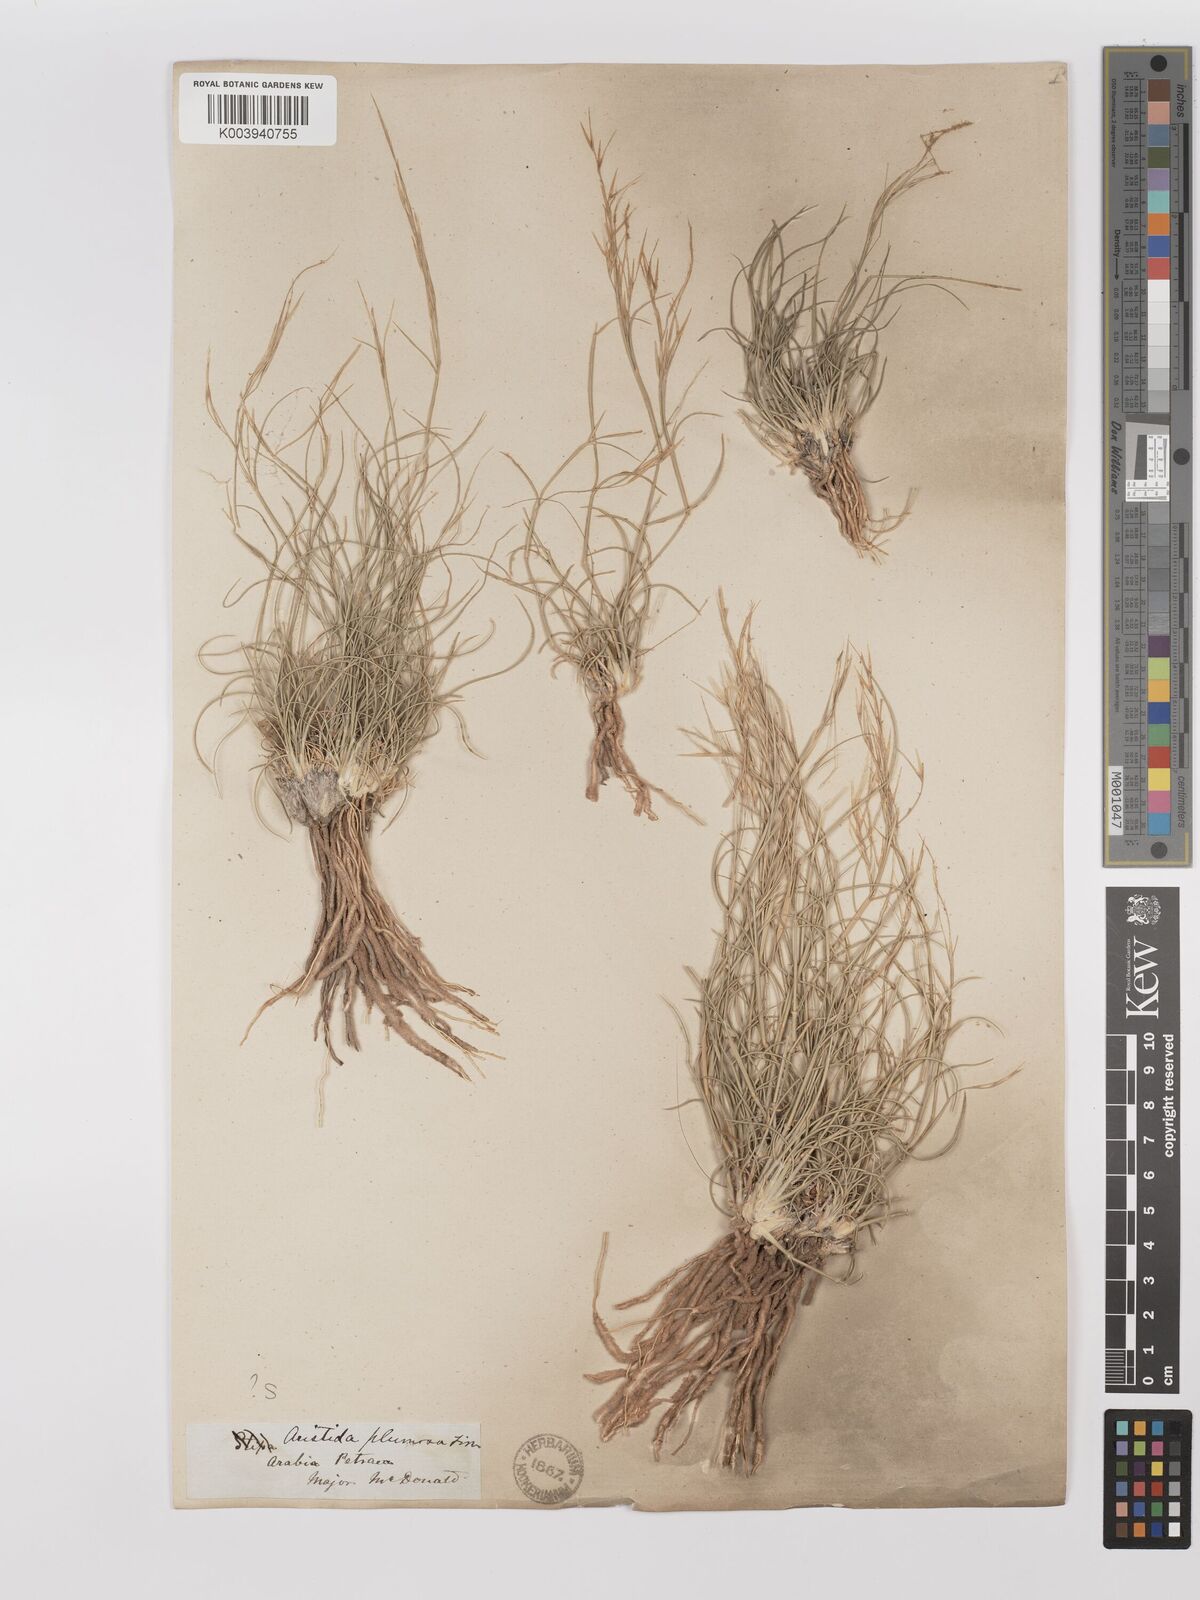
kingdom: Plantae
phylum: Tracheophyta
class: Liliopsida
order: Poales
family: Poaceae
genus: Stipagrostis
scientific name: Stipagrostis plumosa
